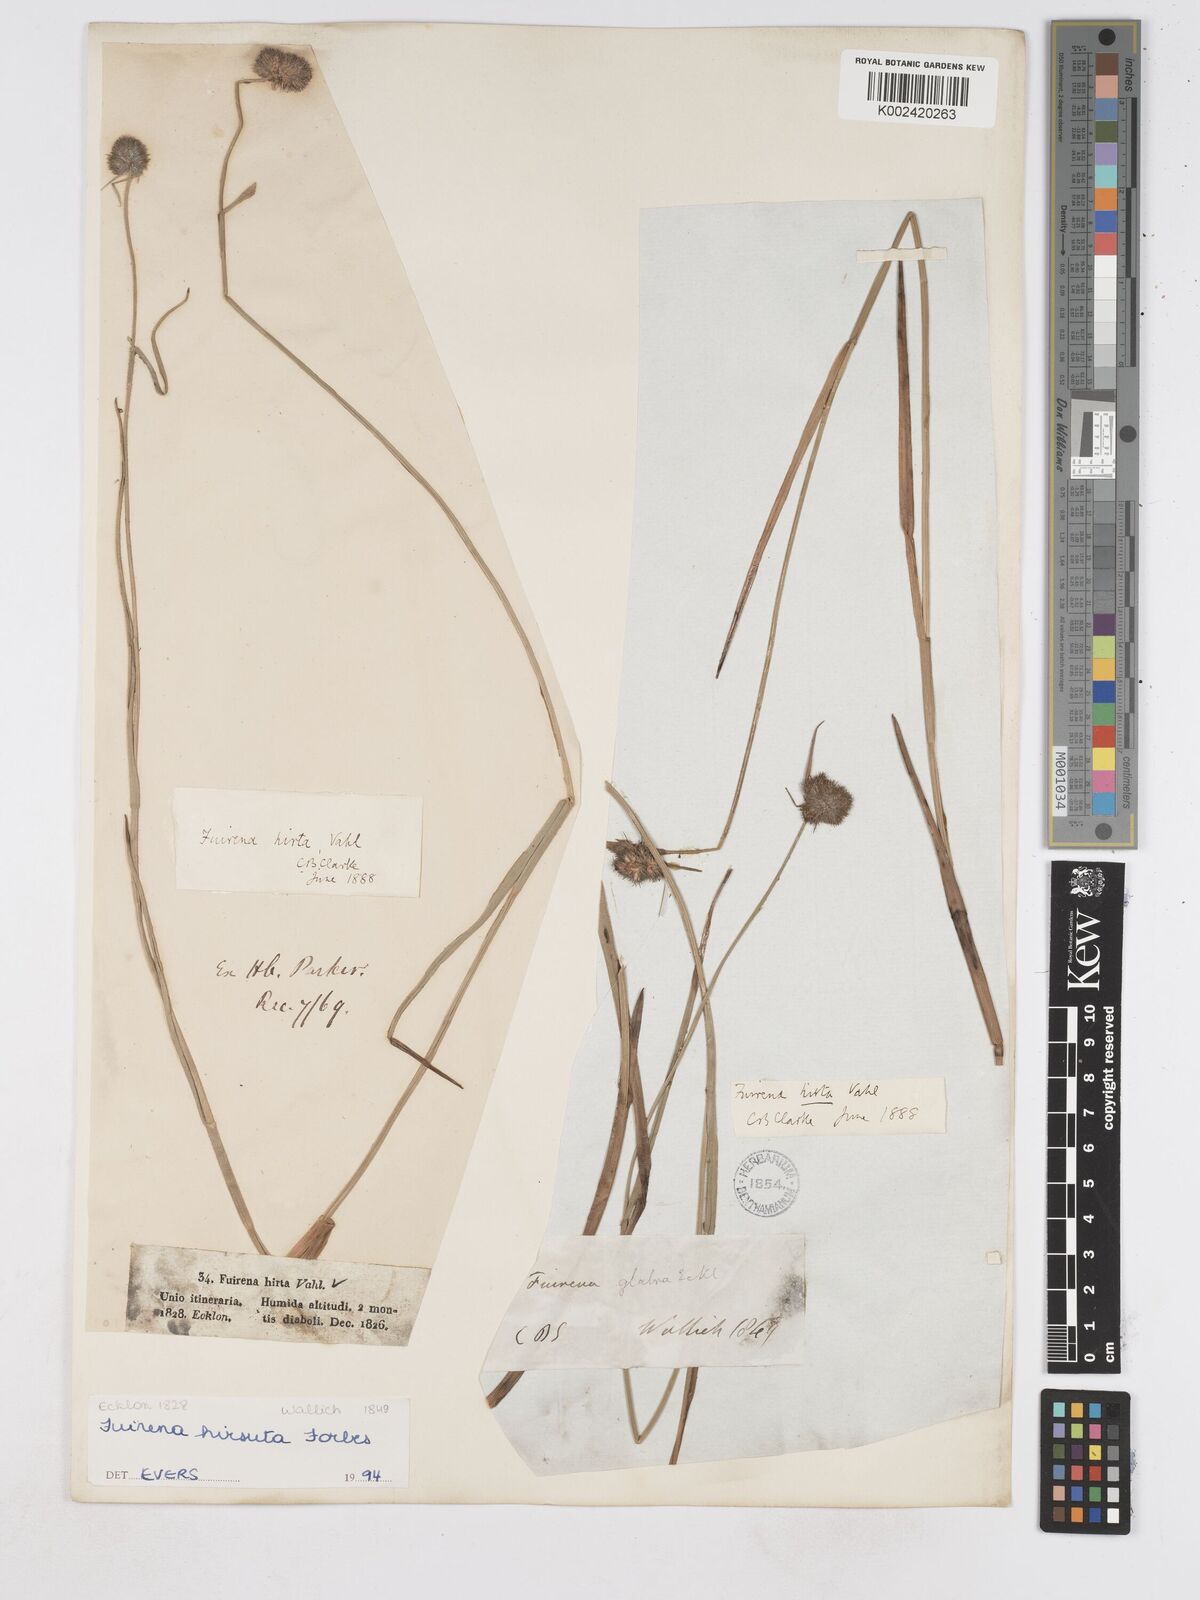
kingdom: Plantae
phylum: Tracheophyta
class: Liliopsida
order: Poales
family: Cyperaceae
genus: Fuirena
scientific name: Fuirena hirsuta
